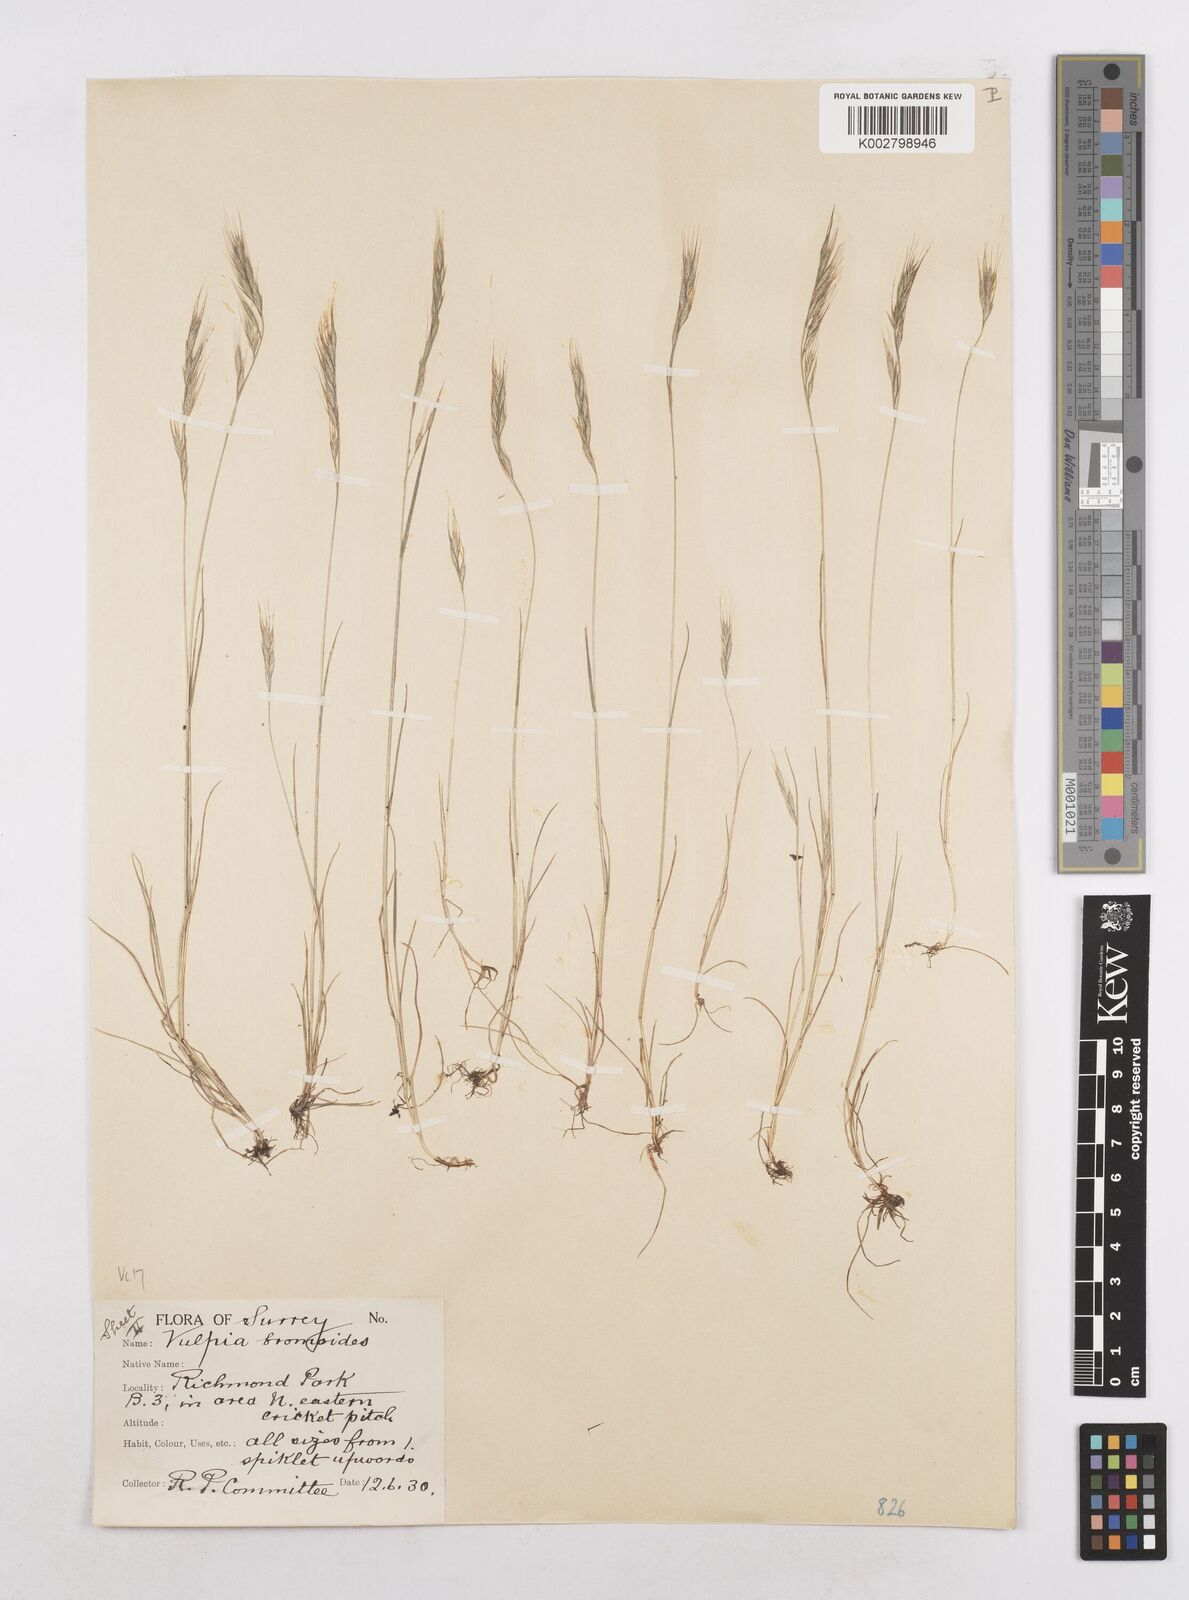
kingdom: Plantae
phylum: Tracheophyta
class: Liliopsida
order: Poales
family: Poaceae
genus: Festuca
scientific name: Festuca bromoides
